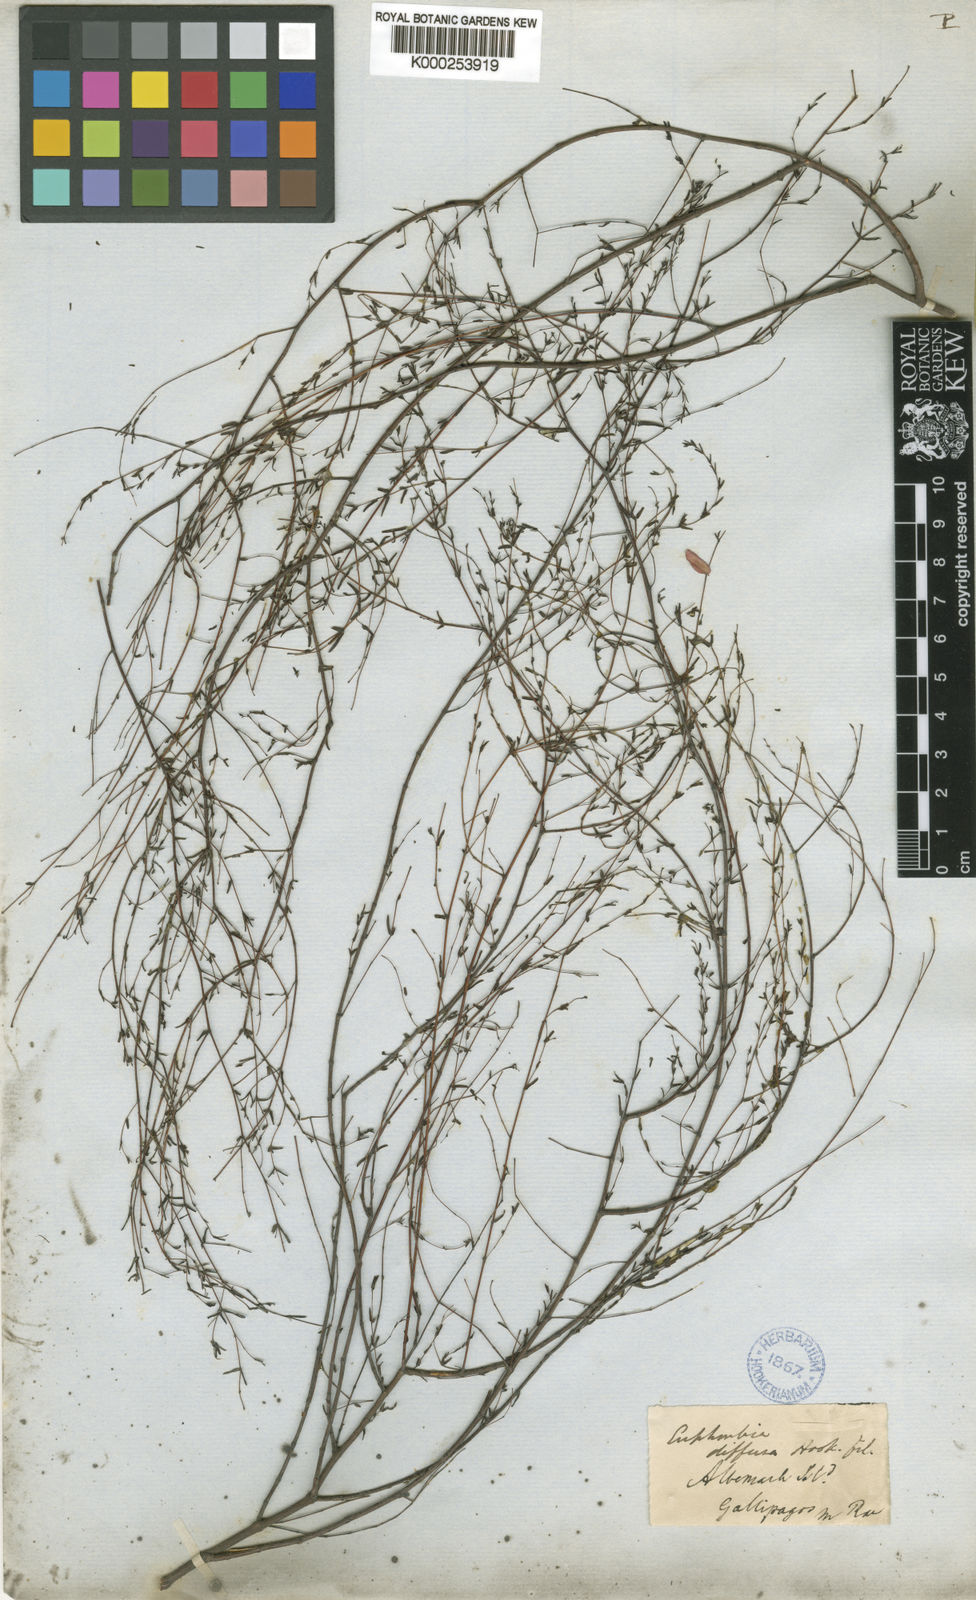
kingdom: Plantae
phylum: Tracheophyta
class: Magnoliopsida
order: Malpighiales
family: Euphorbiaceae
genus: Euphorbia
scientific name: Euphorbia punctulata
